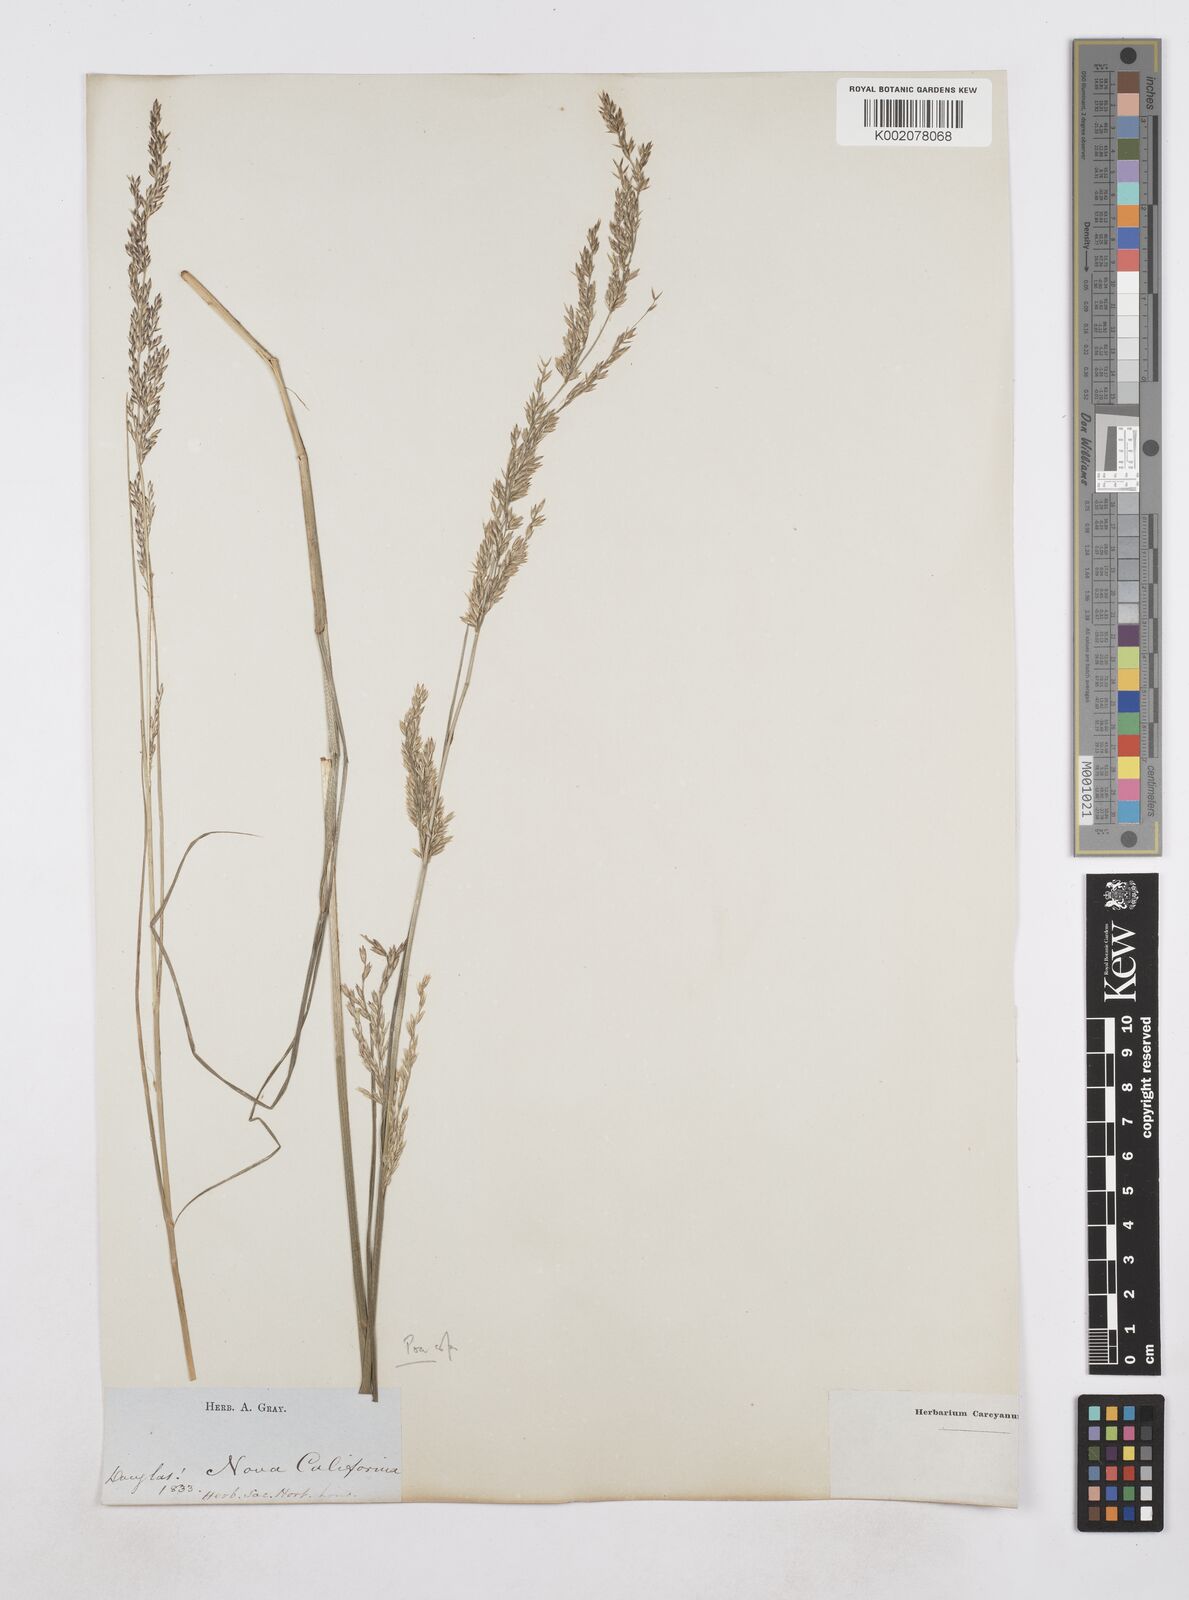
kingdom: Plantae
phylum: Tracheophyta
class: Liliopsida
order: Poales
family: Poaceae
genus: Poa
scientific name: Poa
